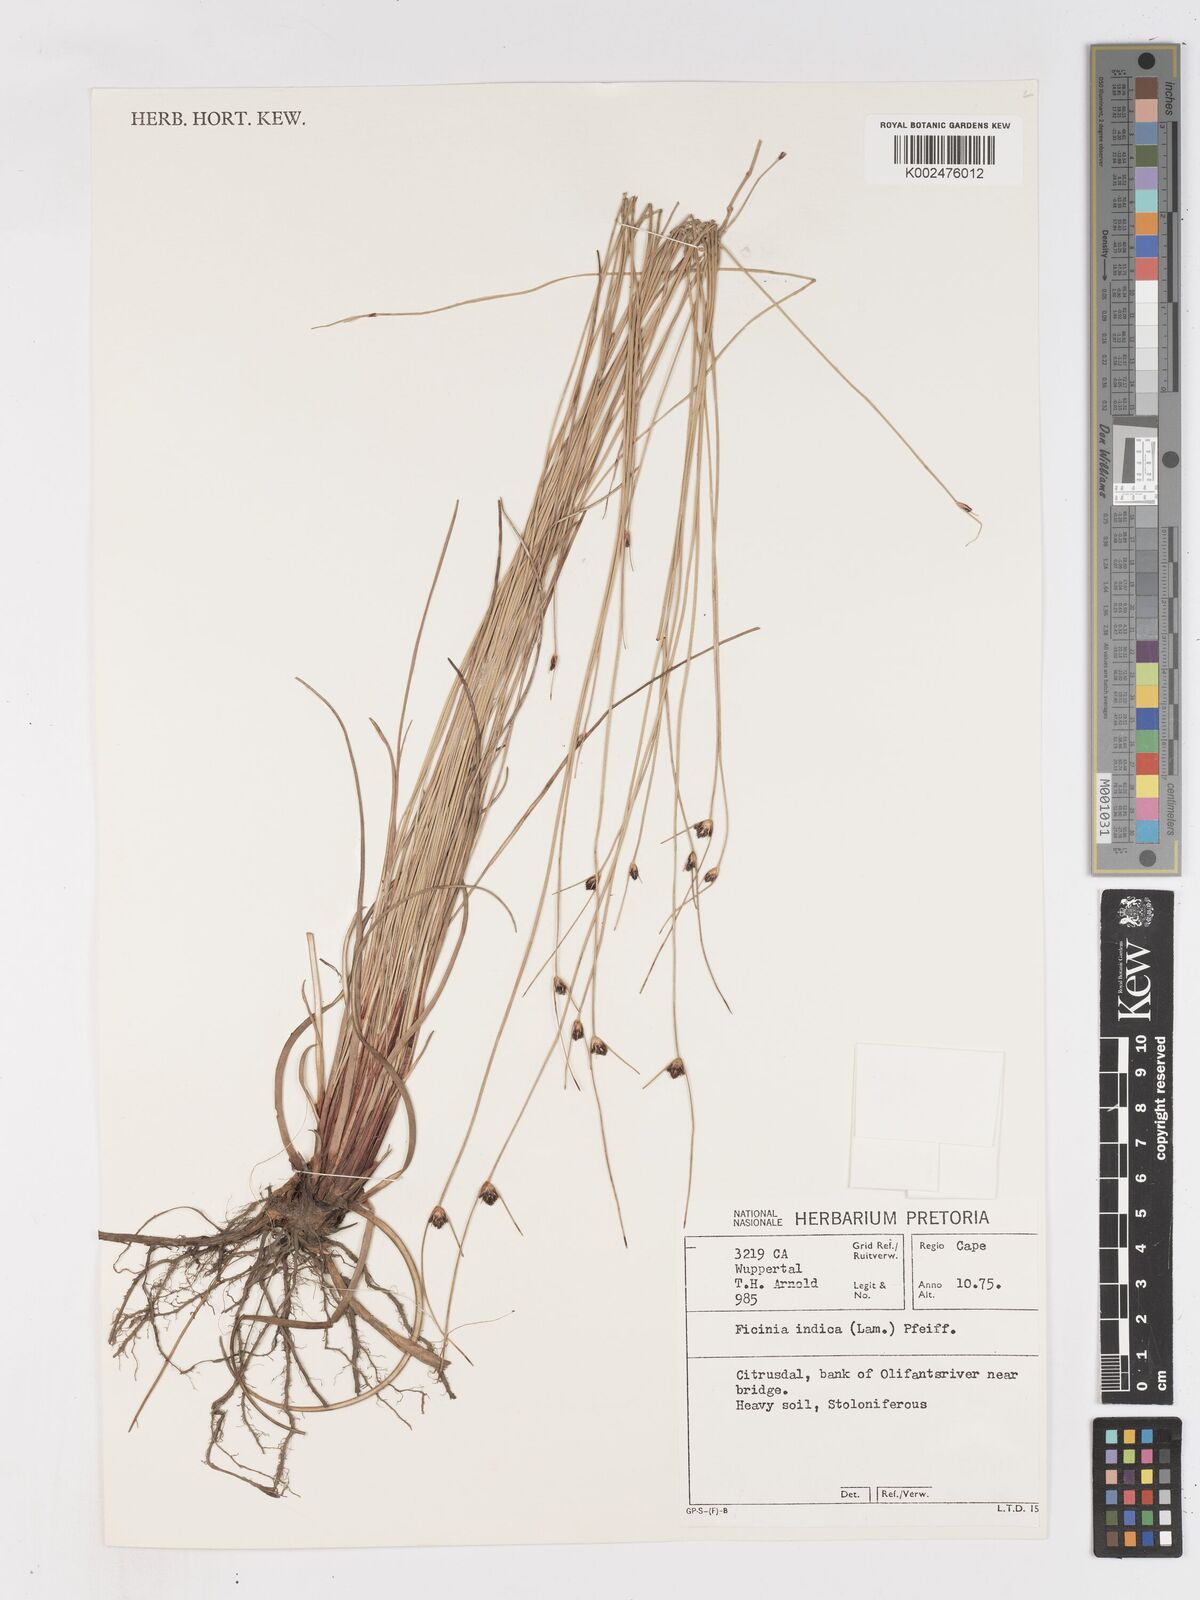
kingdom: Plantae
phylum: Tracheophyta
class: Liliopsida
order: Poales
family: Cyperaceae
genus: Ficinia
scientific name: Ficinia indica
